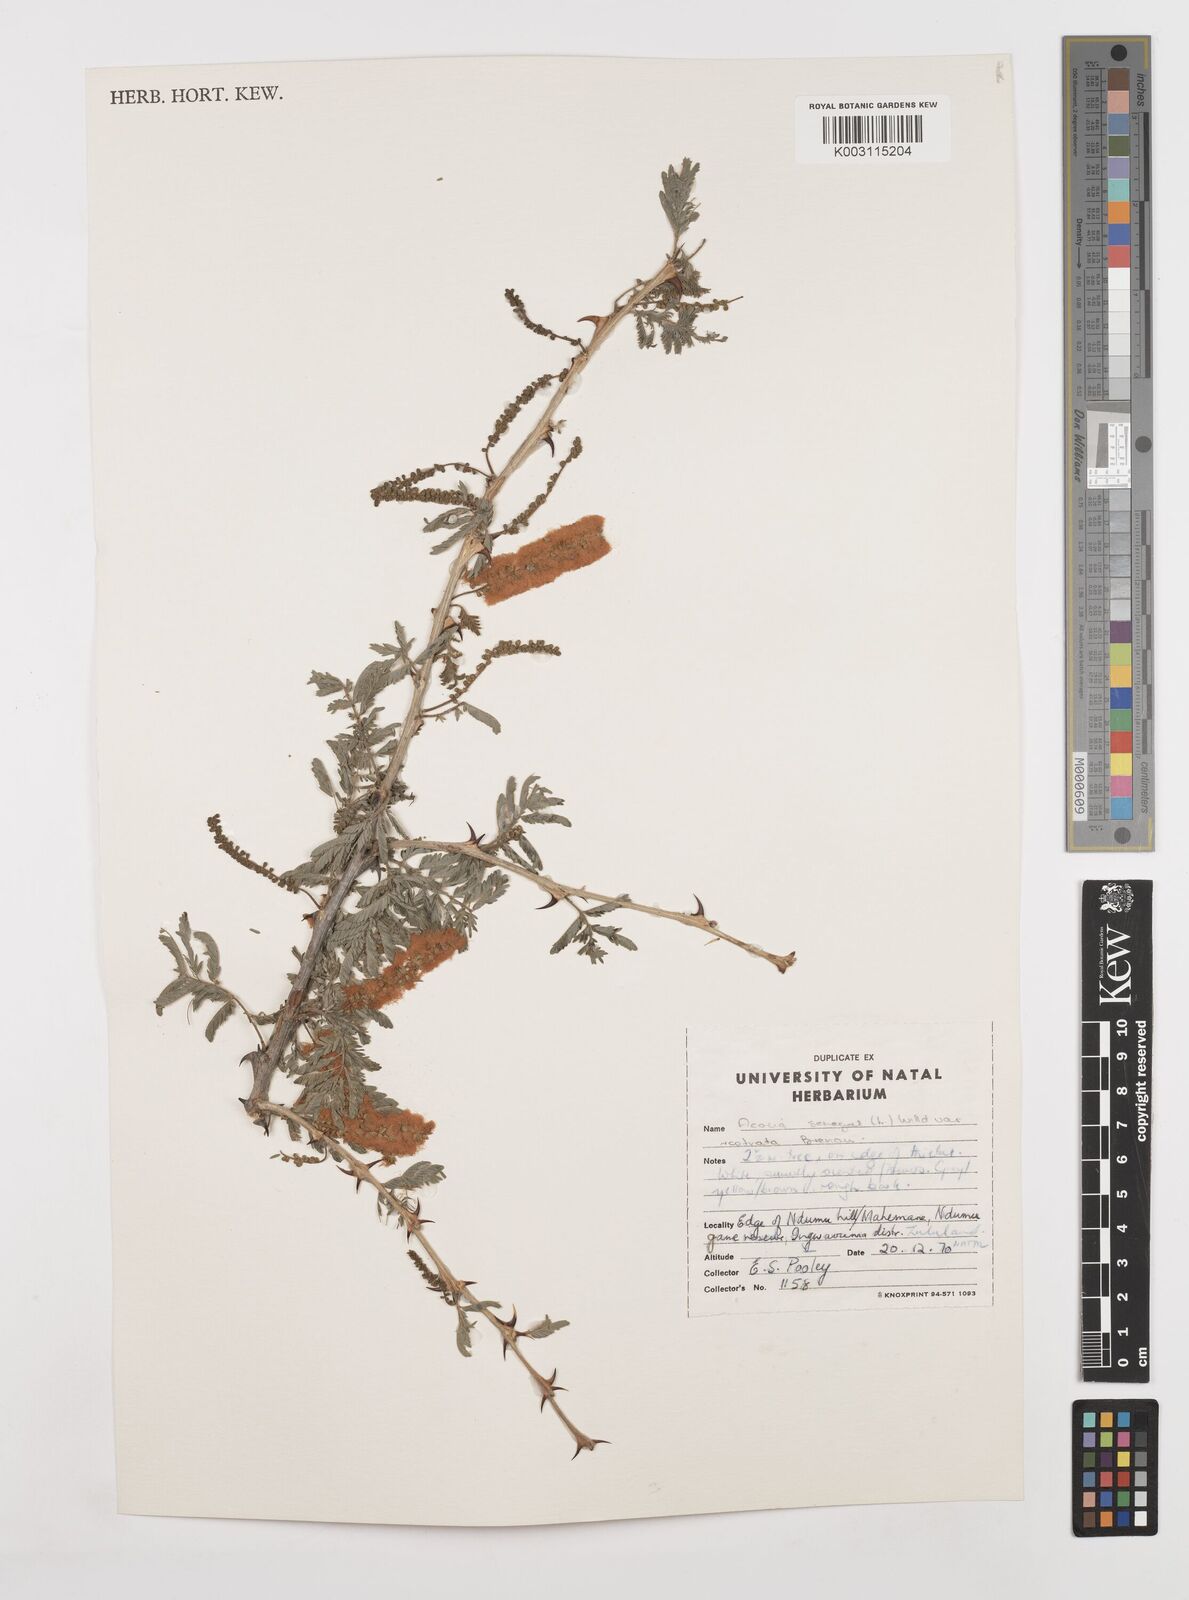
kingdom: Plantae
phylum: Tracheophyta
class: Magnoliopsida
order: Fabales
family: Fabaceae
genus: Senegalia
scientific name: Senegalia senegal
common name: Senegal-gum
